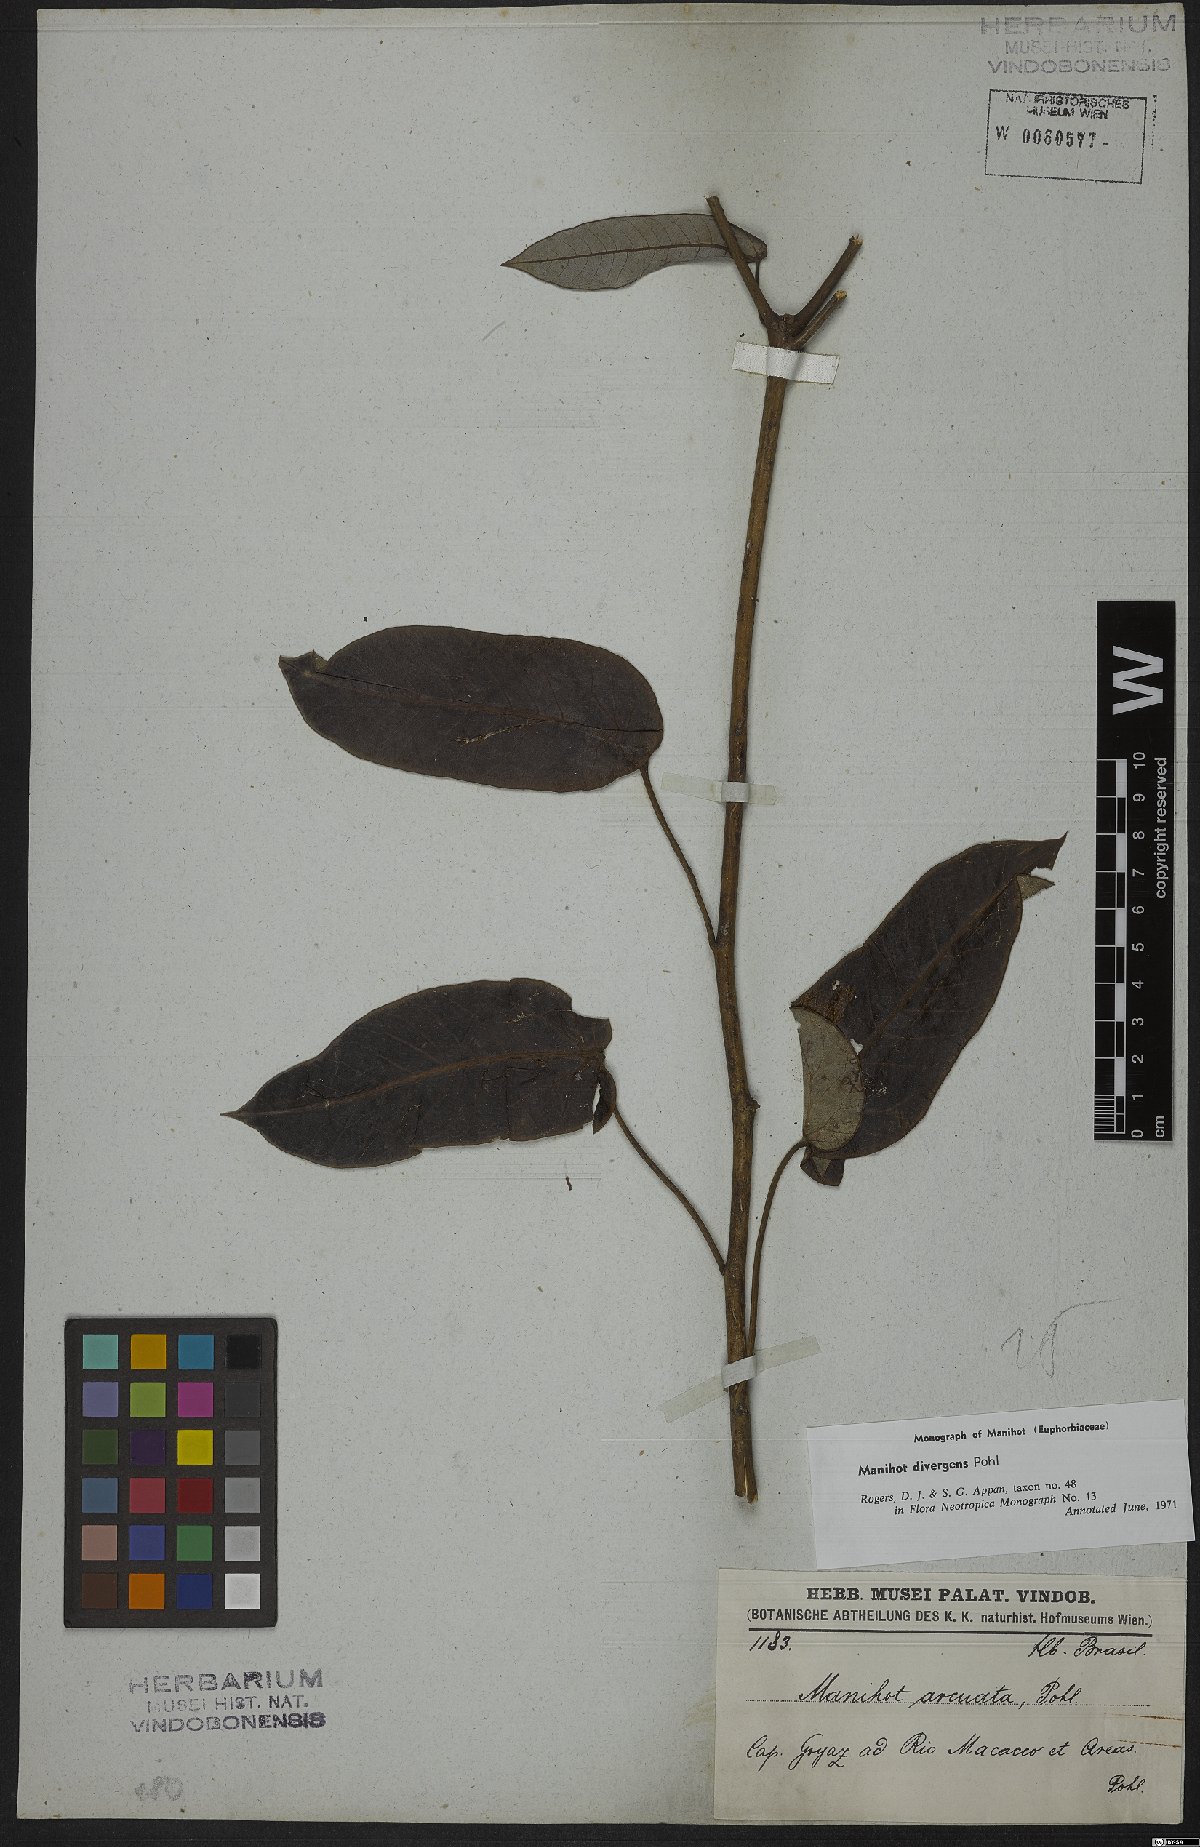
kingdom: Plantae
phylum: Tracheophyta
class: Magnoliopsida
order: Malpighiales
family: Euphorbiaceae
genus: Manihot
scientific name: Manihot divergens
